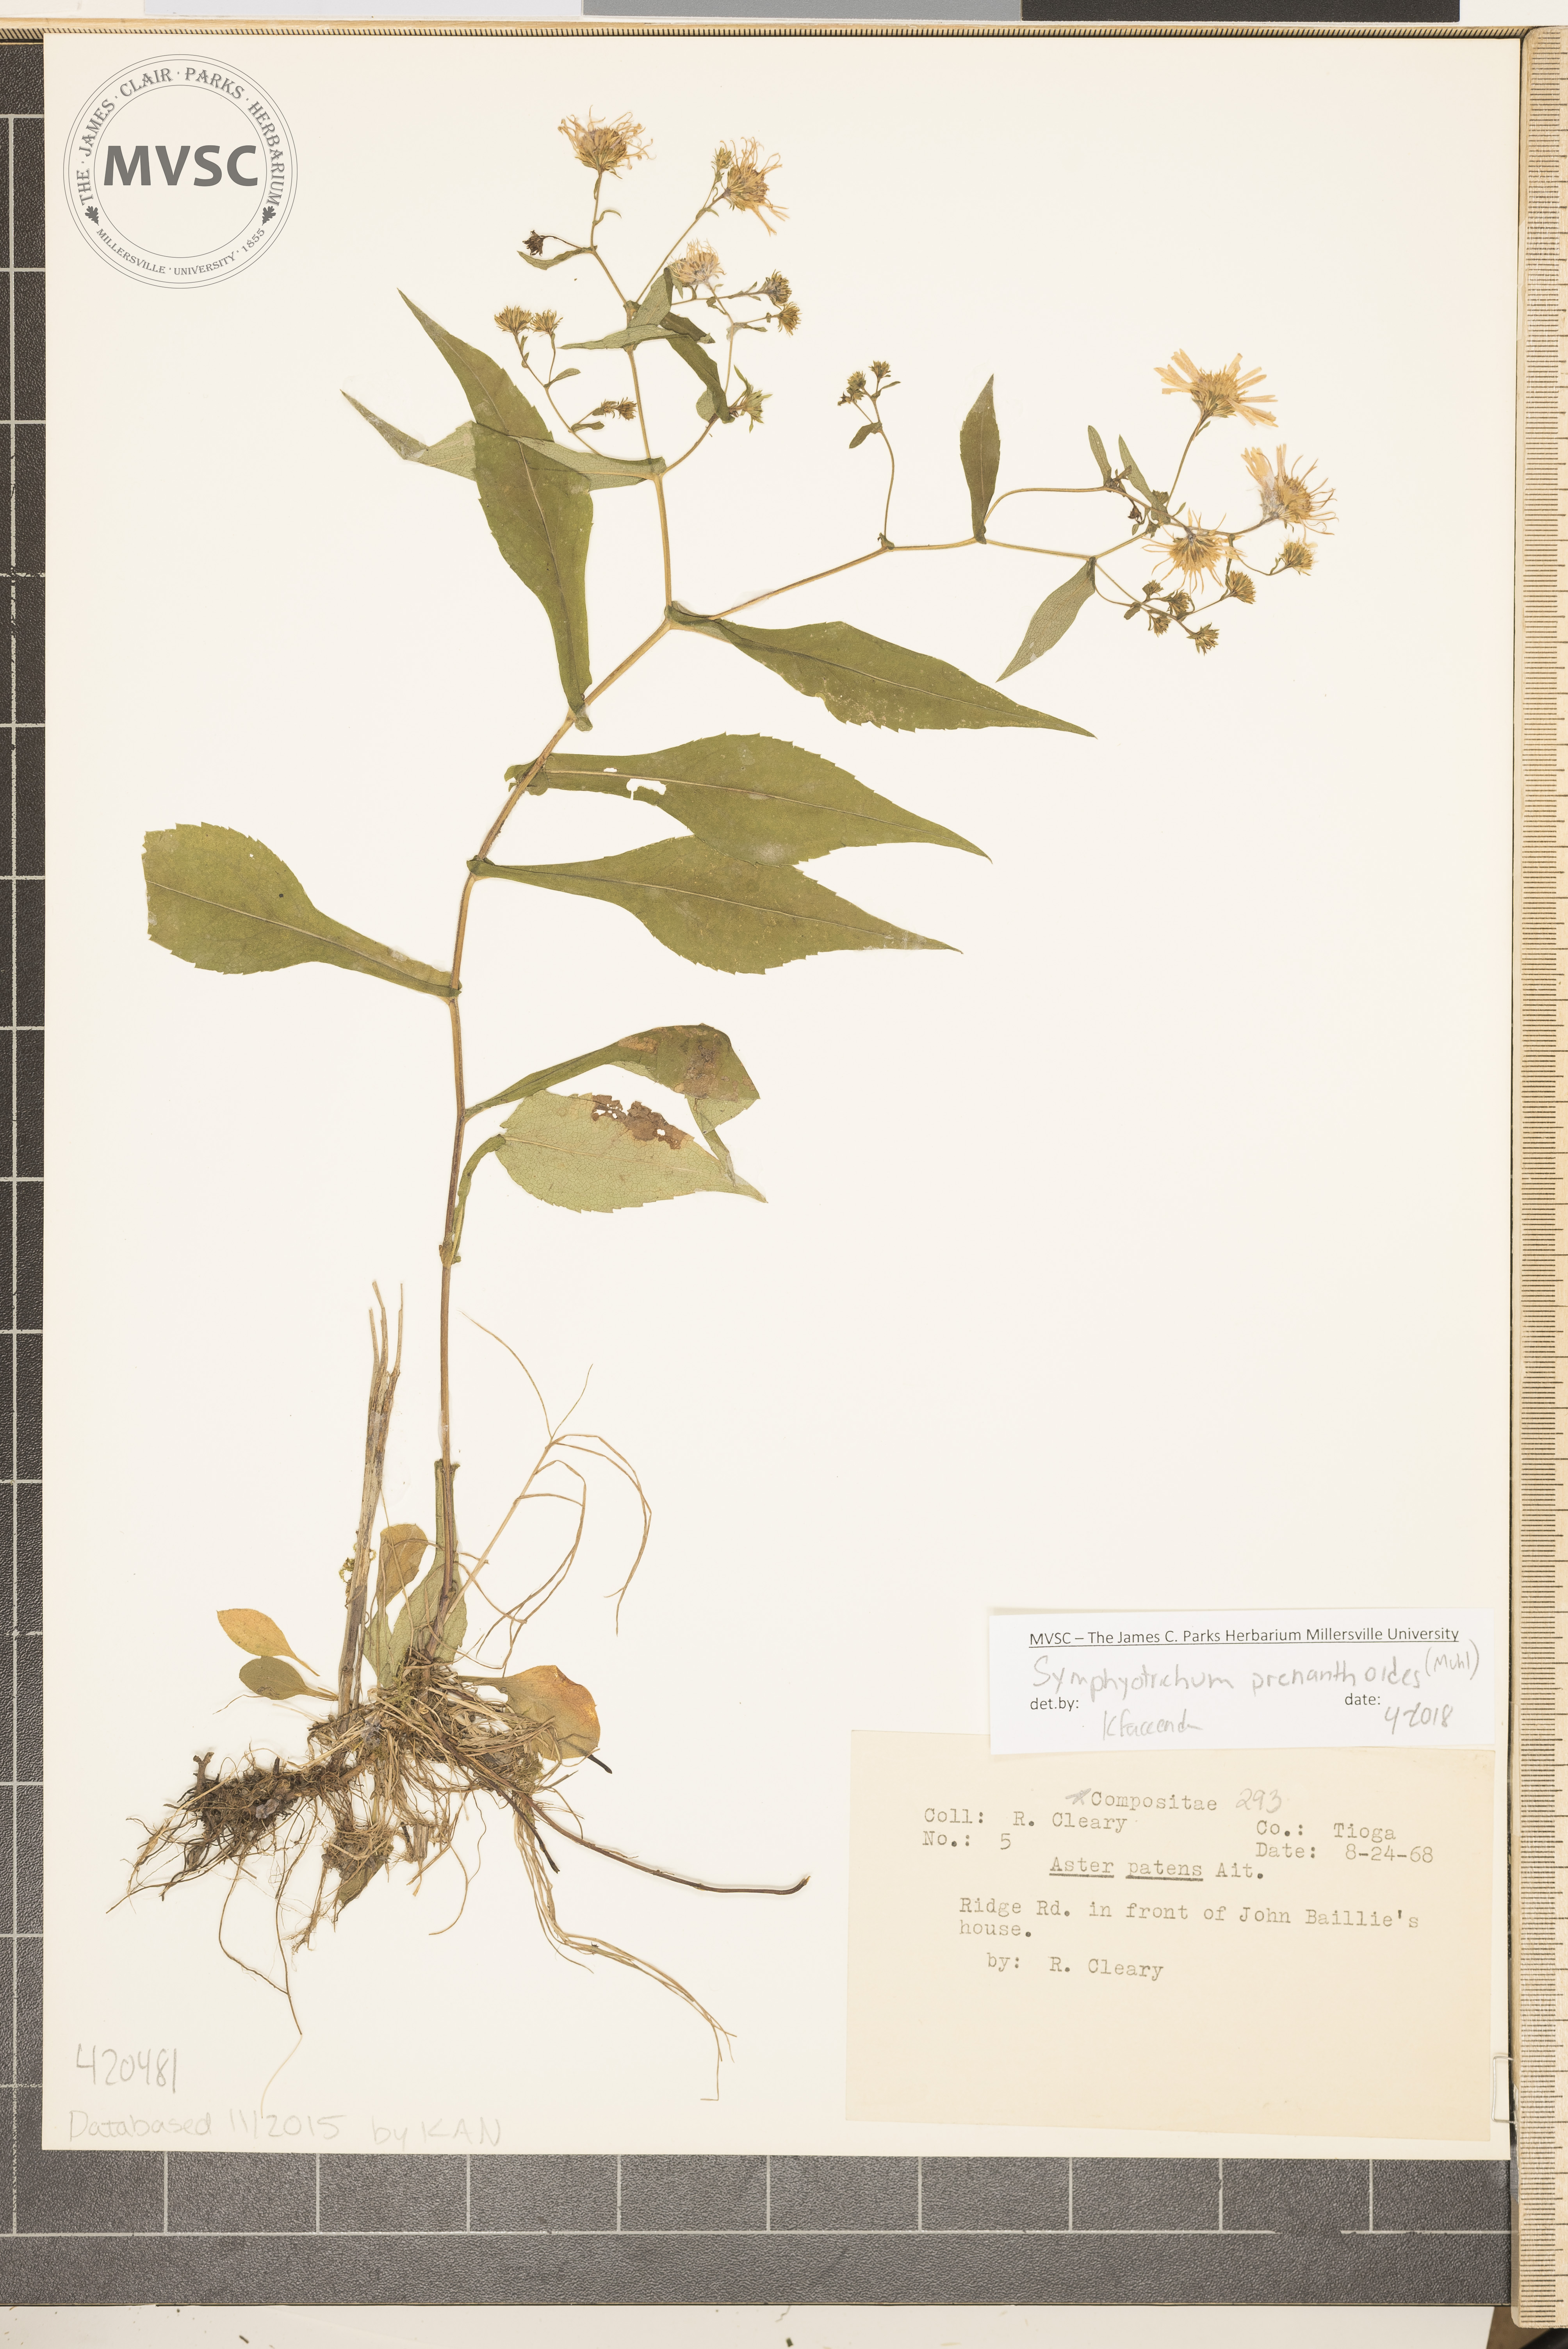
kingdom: Plantae
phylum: Tracheophyta
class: Magnoliopsida
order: Asterales
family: Asteraceae
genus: Symphyotrichum
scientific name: Symphyotrichum prenanthoides
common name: Crooked-stem aster
